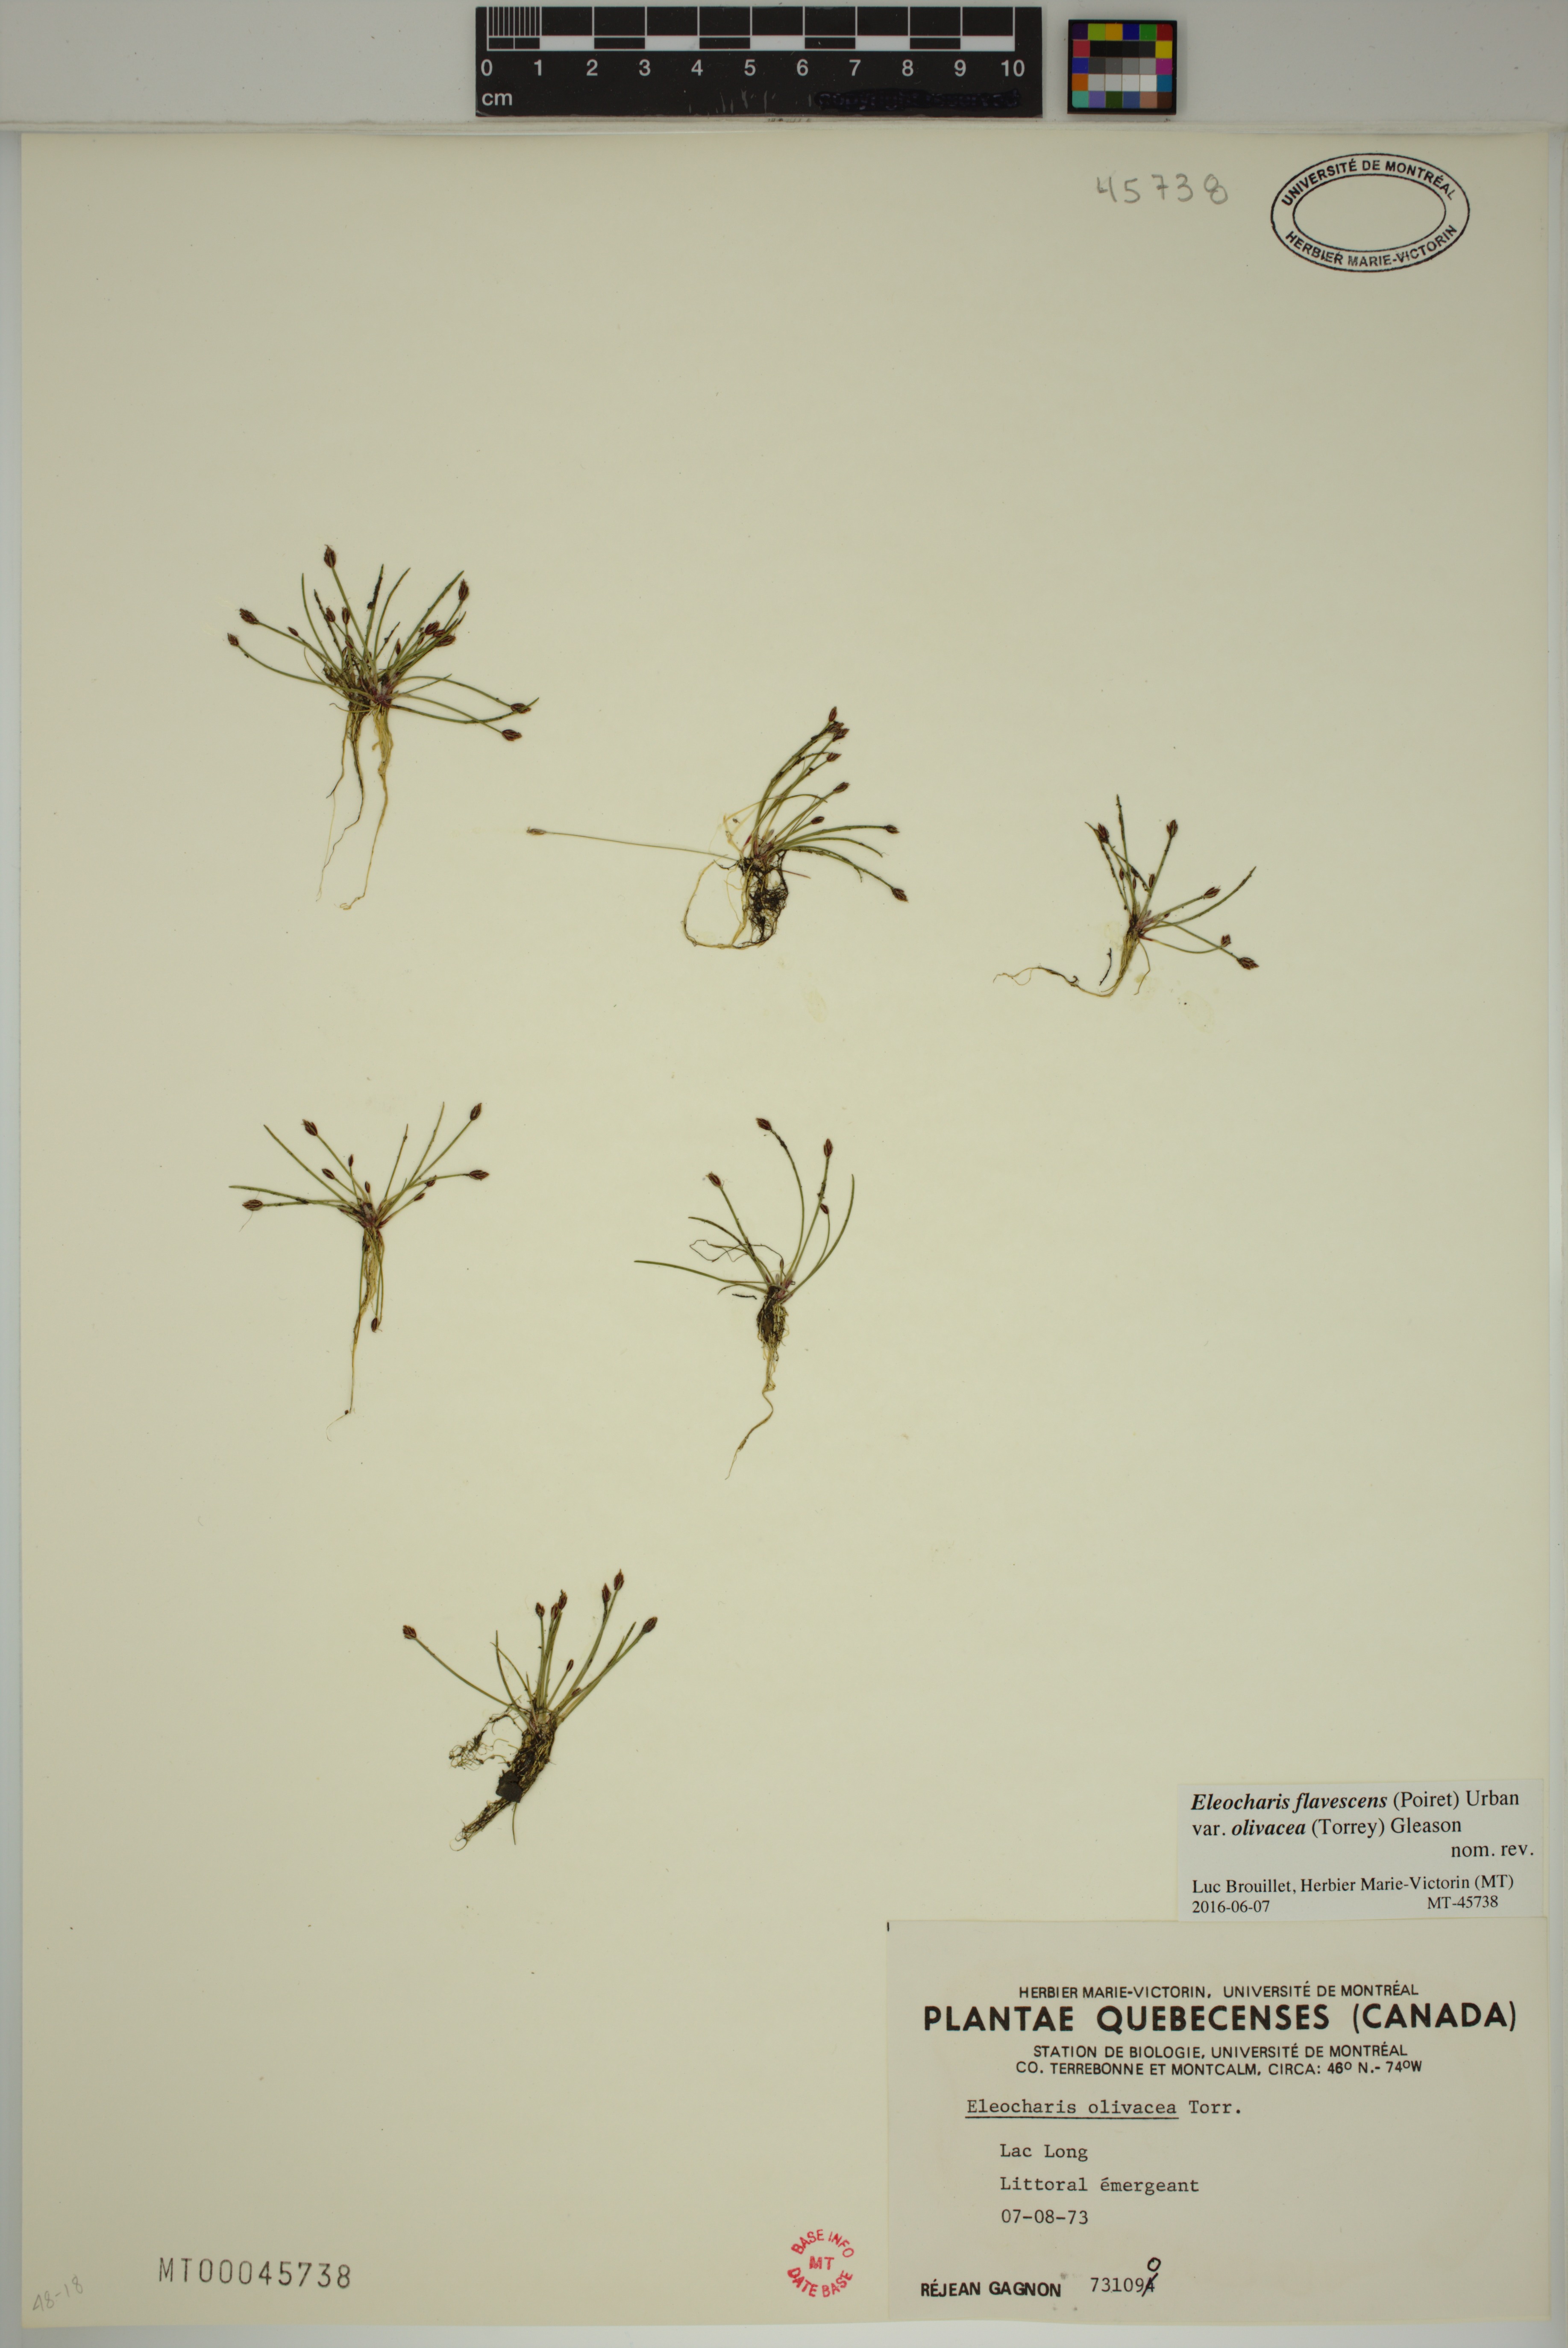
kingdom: Plantae
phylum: Tracheophyta
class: Liliopsida
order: Poales
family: Cyperaceae
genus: Eleocharis
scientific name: Eleocharis flavescens
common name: Yellow spikerush
